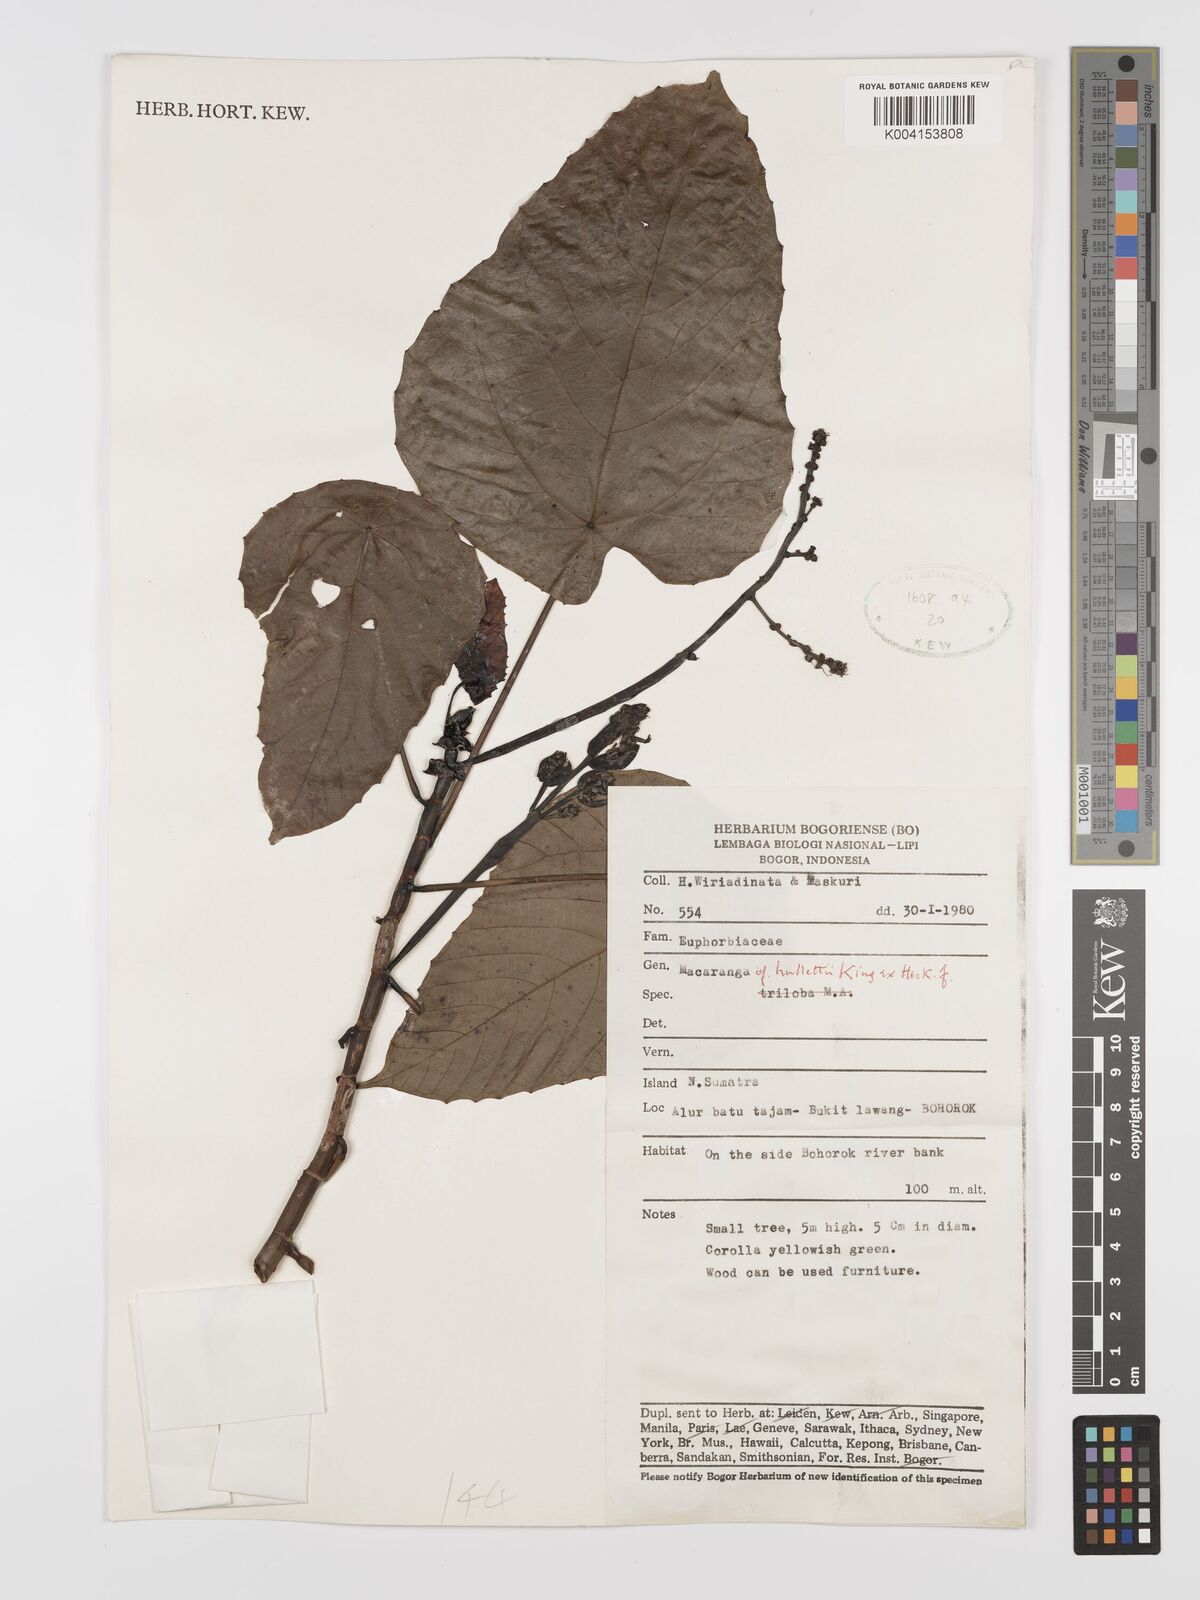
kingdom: Plantae
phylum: Tracheophyta
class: Magnoliopsida
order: Malpighiales
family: Euphorbiaceae
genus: Macaranga
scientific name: Macaranga
